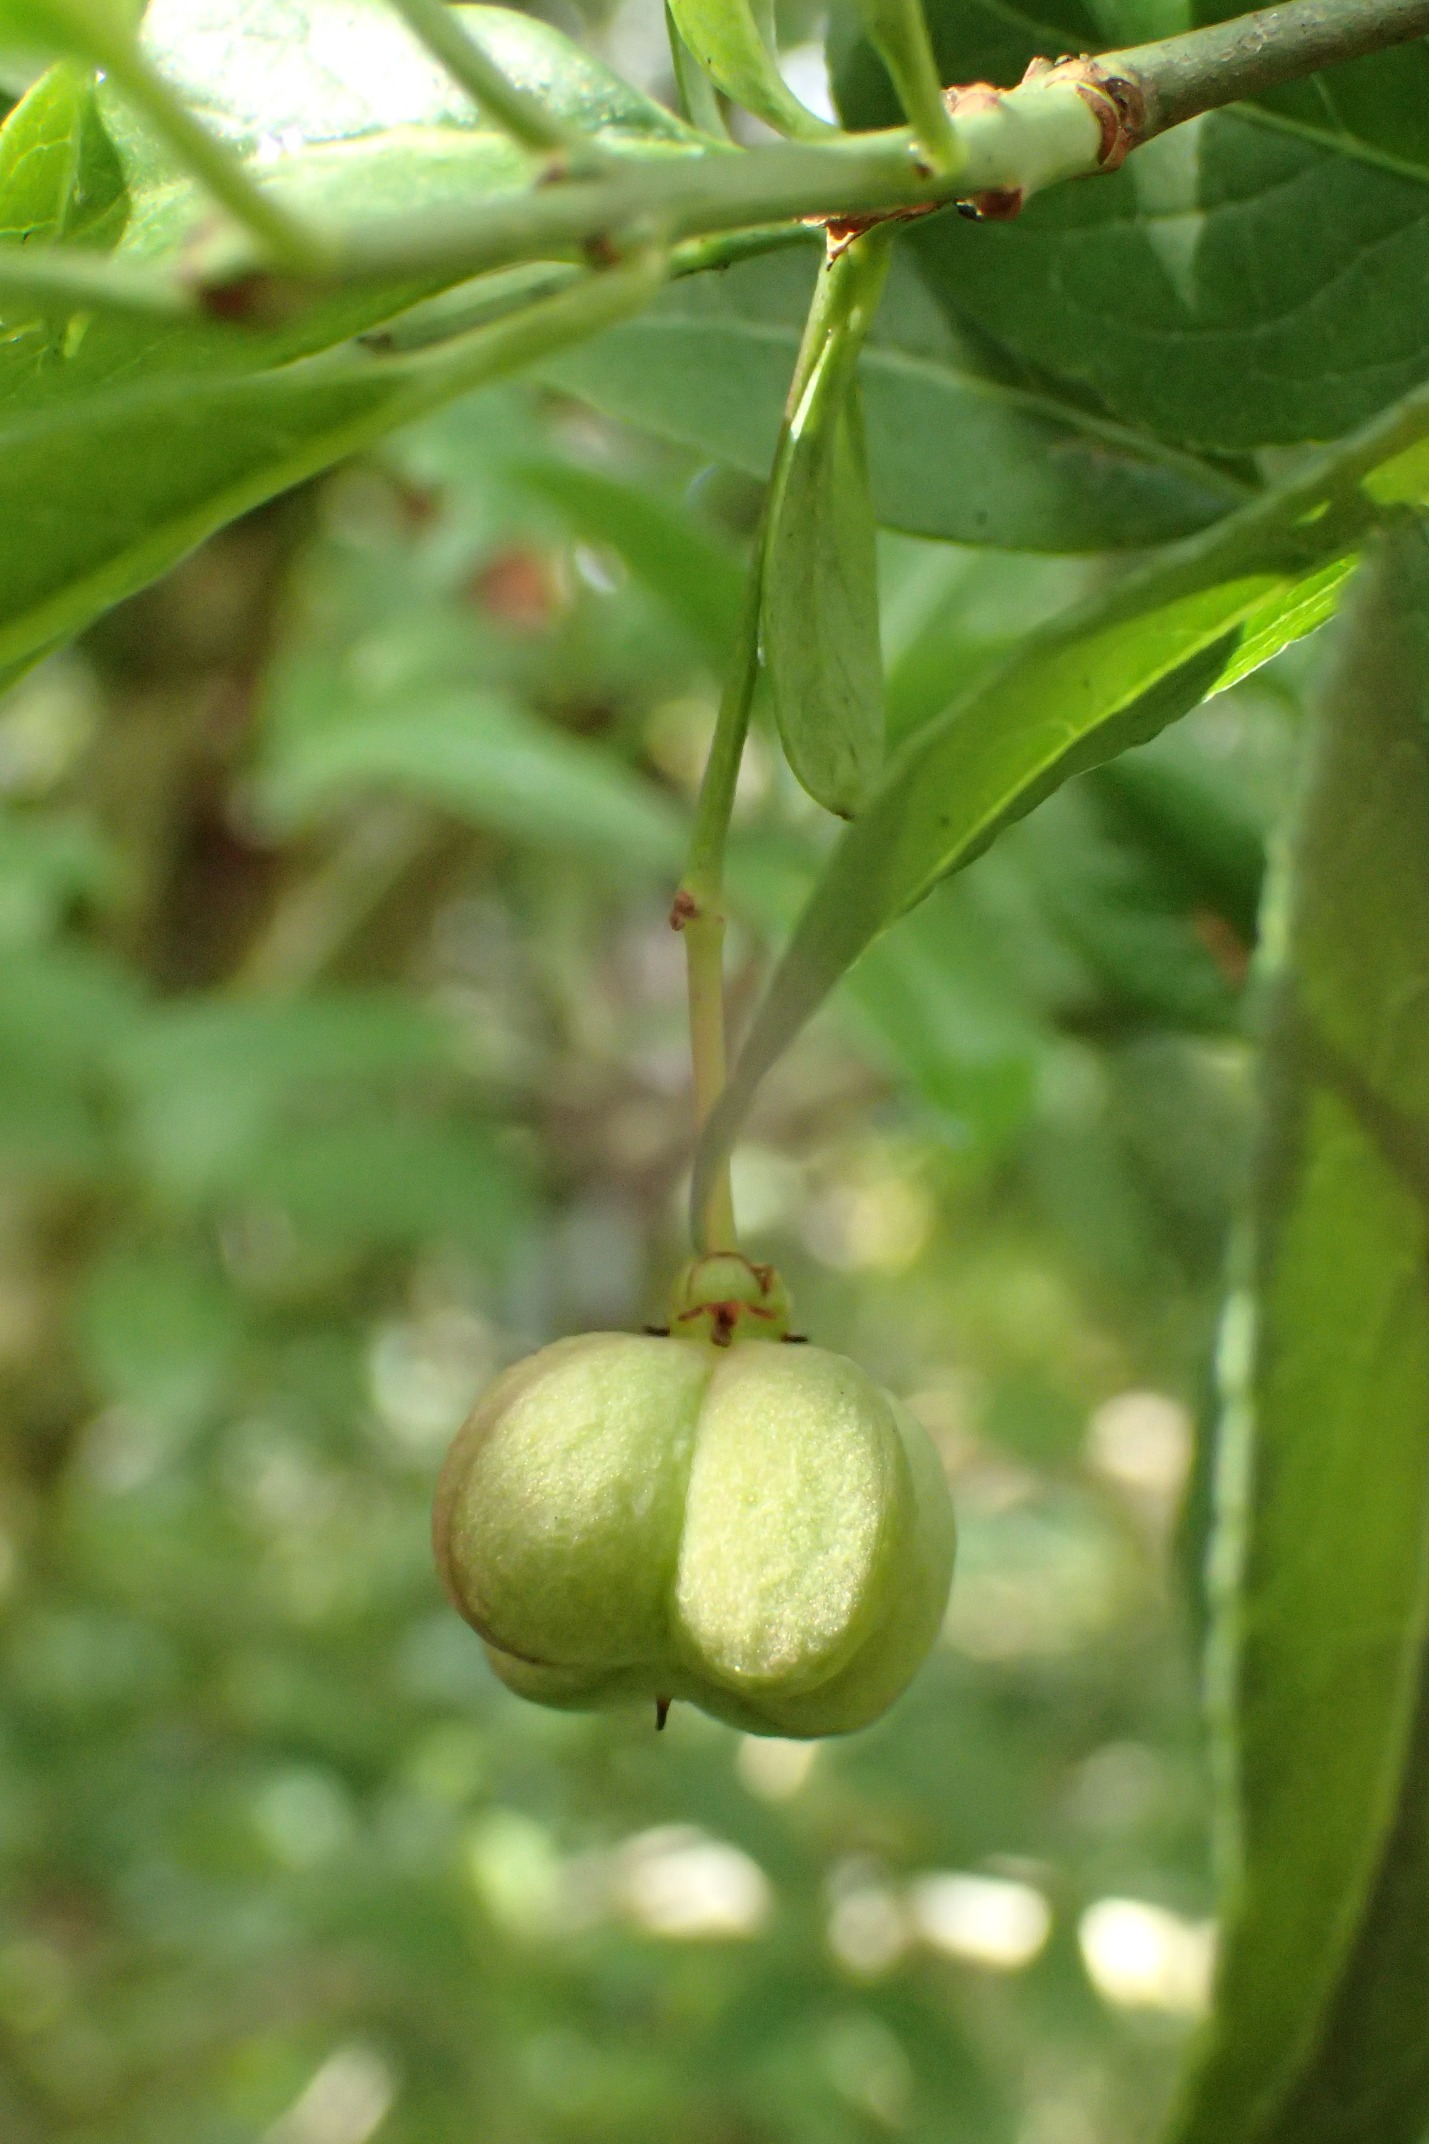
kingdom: Plantae
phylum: Tracheophyta
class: Magnoliopsida
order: Celastrales
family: Celastraceae
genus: Euonymus
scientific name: Euonymus europaeus
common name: Benved
